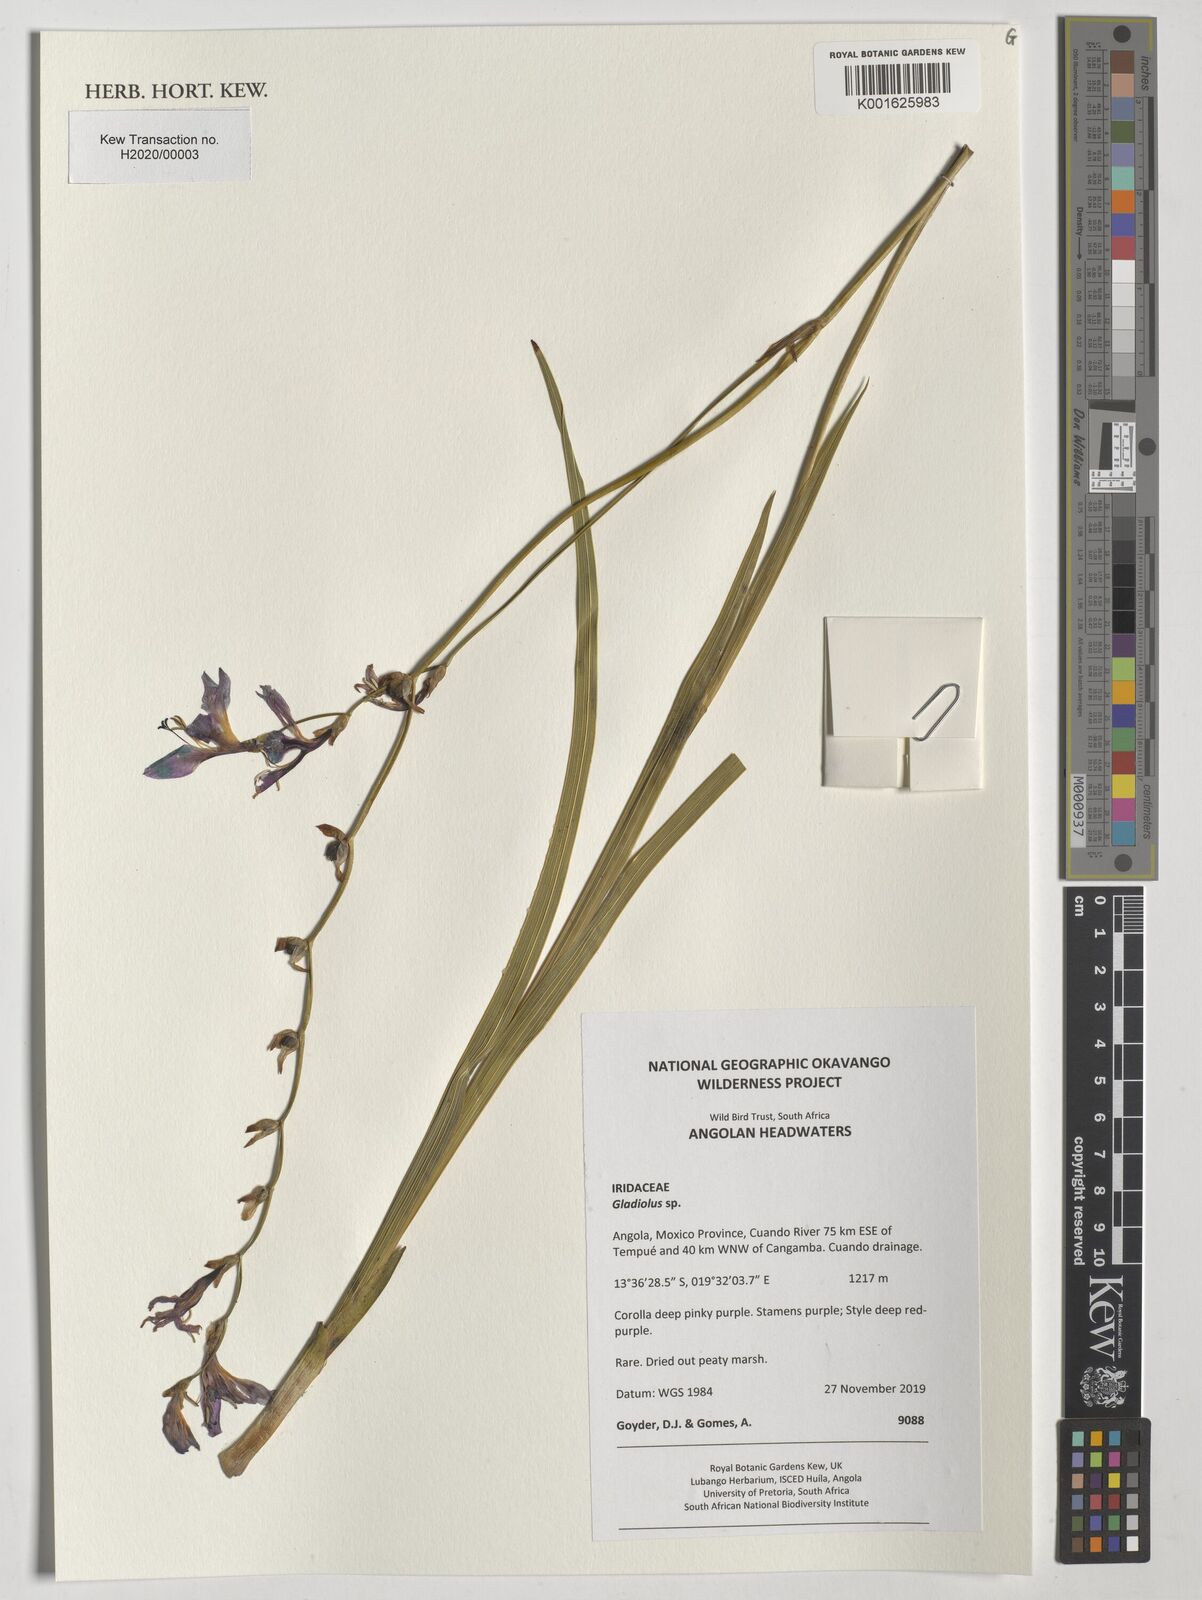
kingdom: Plantae
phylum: Tracheophyta
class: Liliopsida
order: Asparagales
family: Iridaceae
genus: Gladiolus
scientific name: Gladiolus
